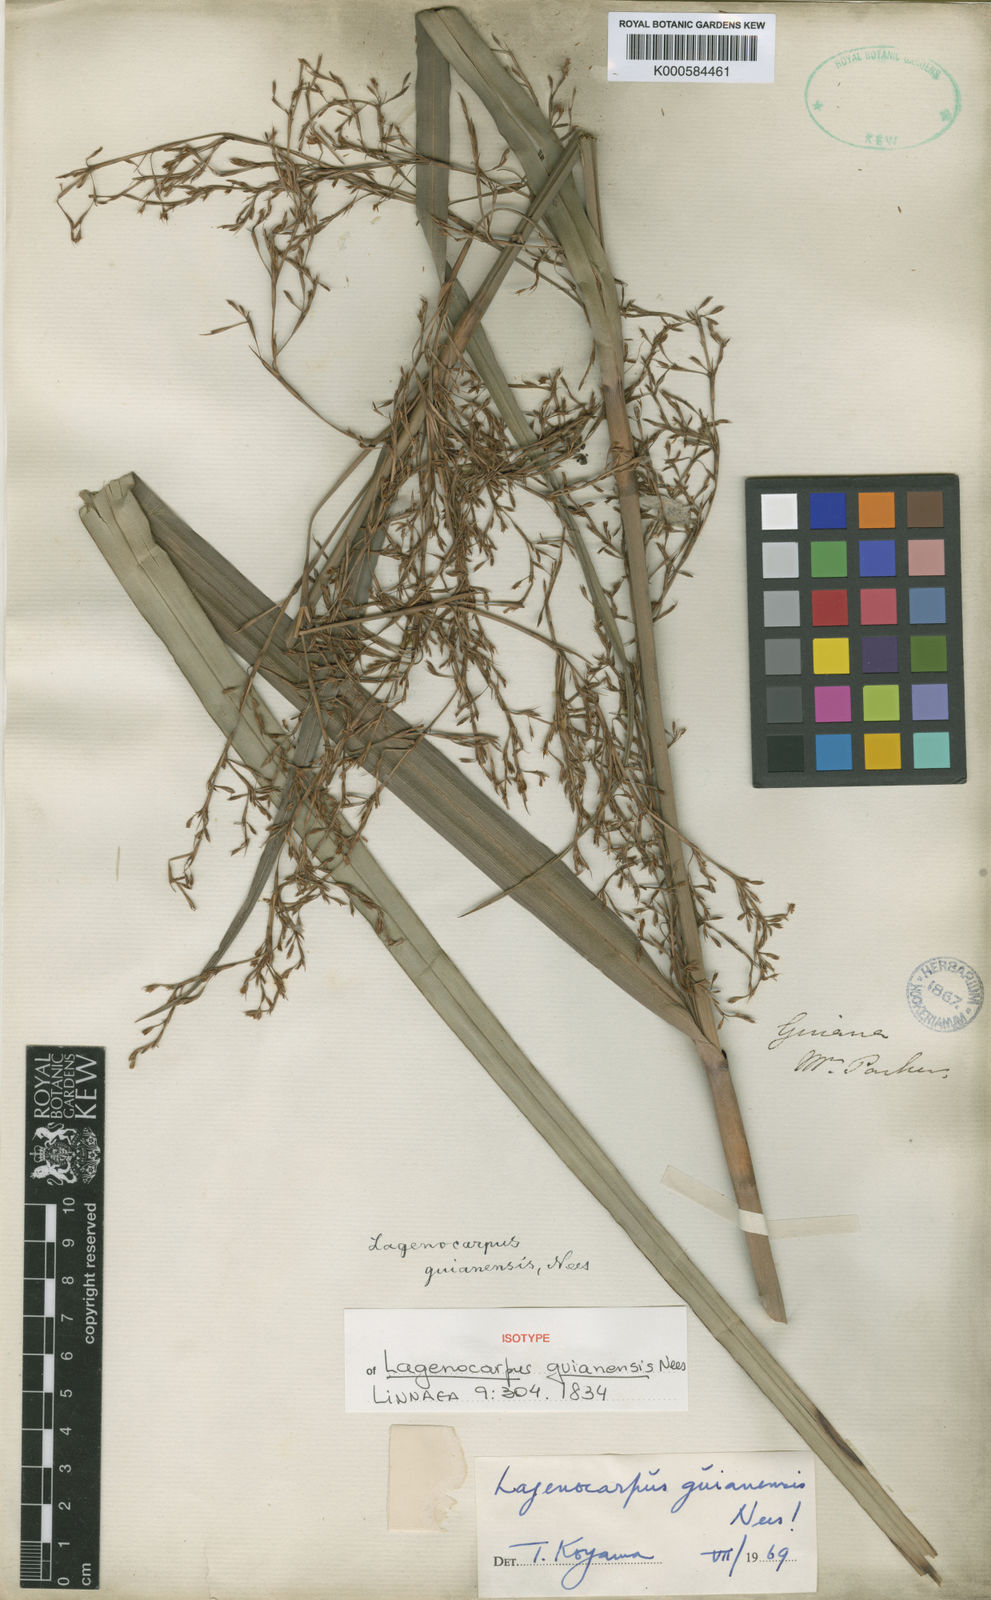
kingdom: Plantae
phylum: Tracheophyta
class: Liliopsida
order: Poales
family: Cyperaceae
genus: Lagenocarpus
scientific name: Lagenocarpus guianensis
